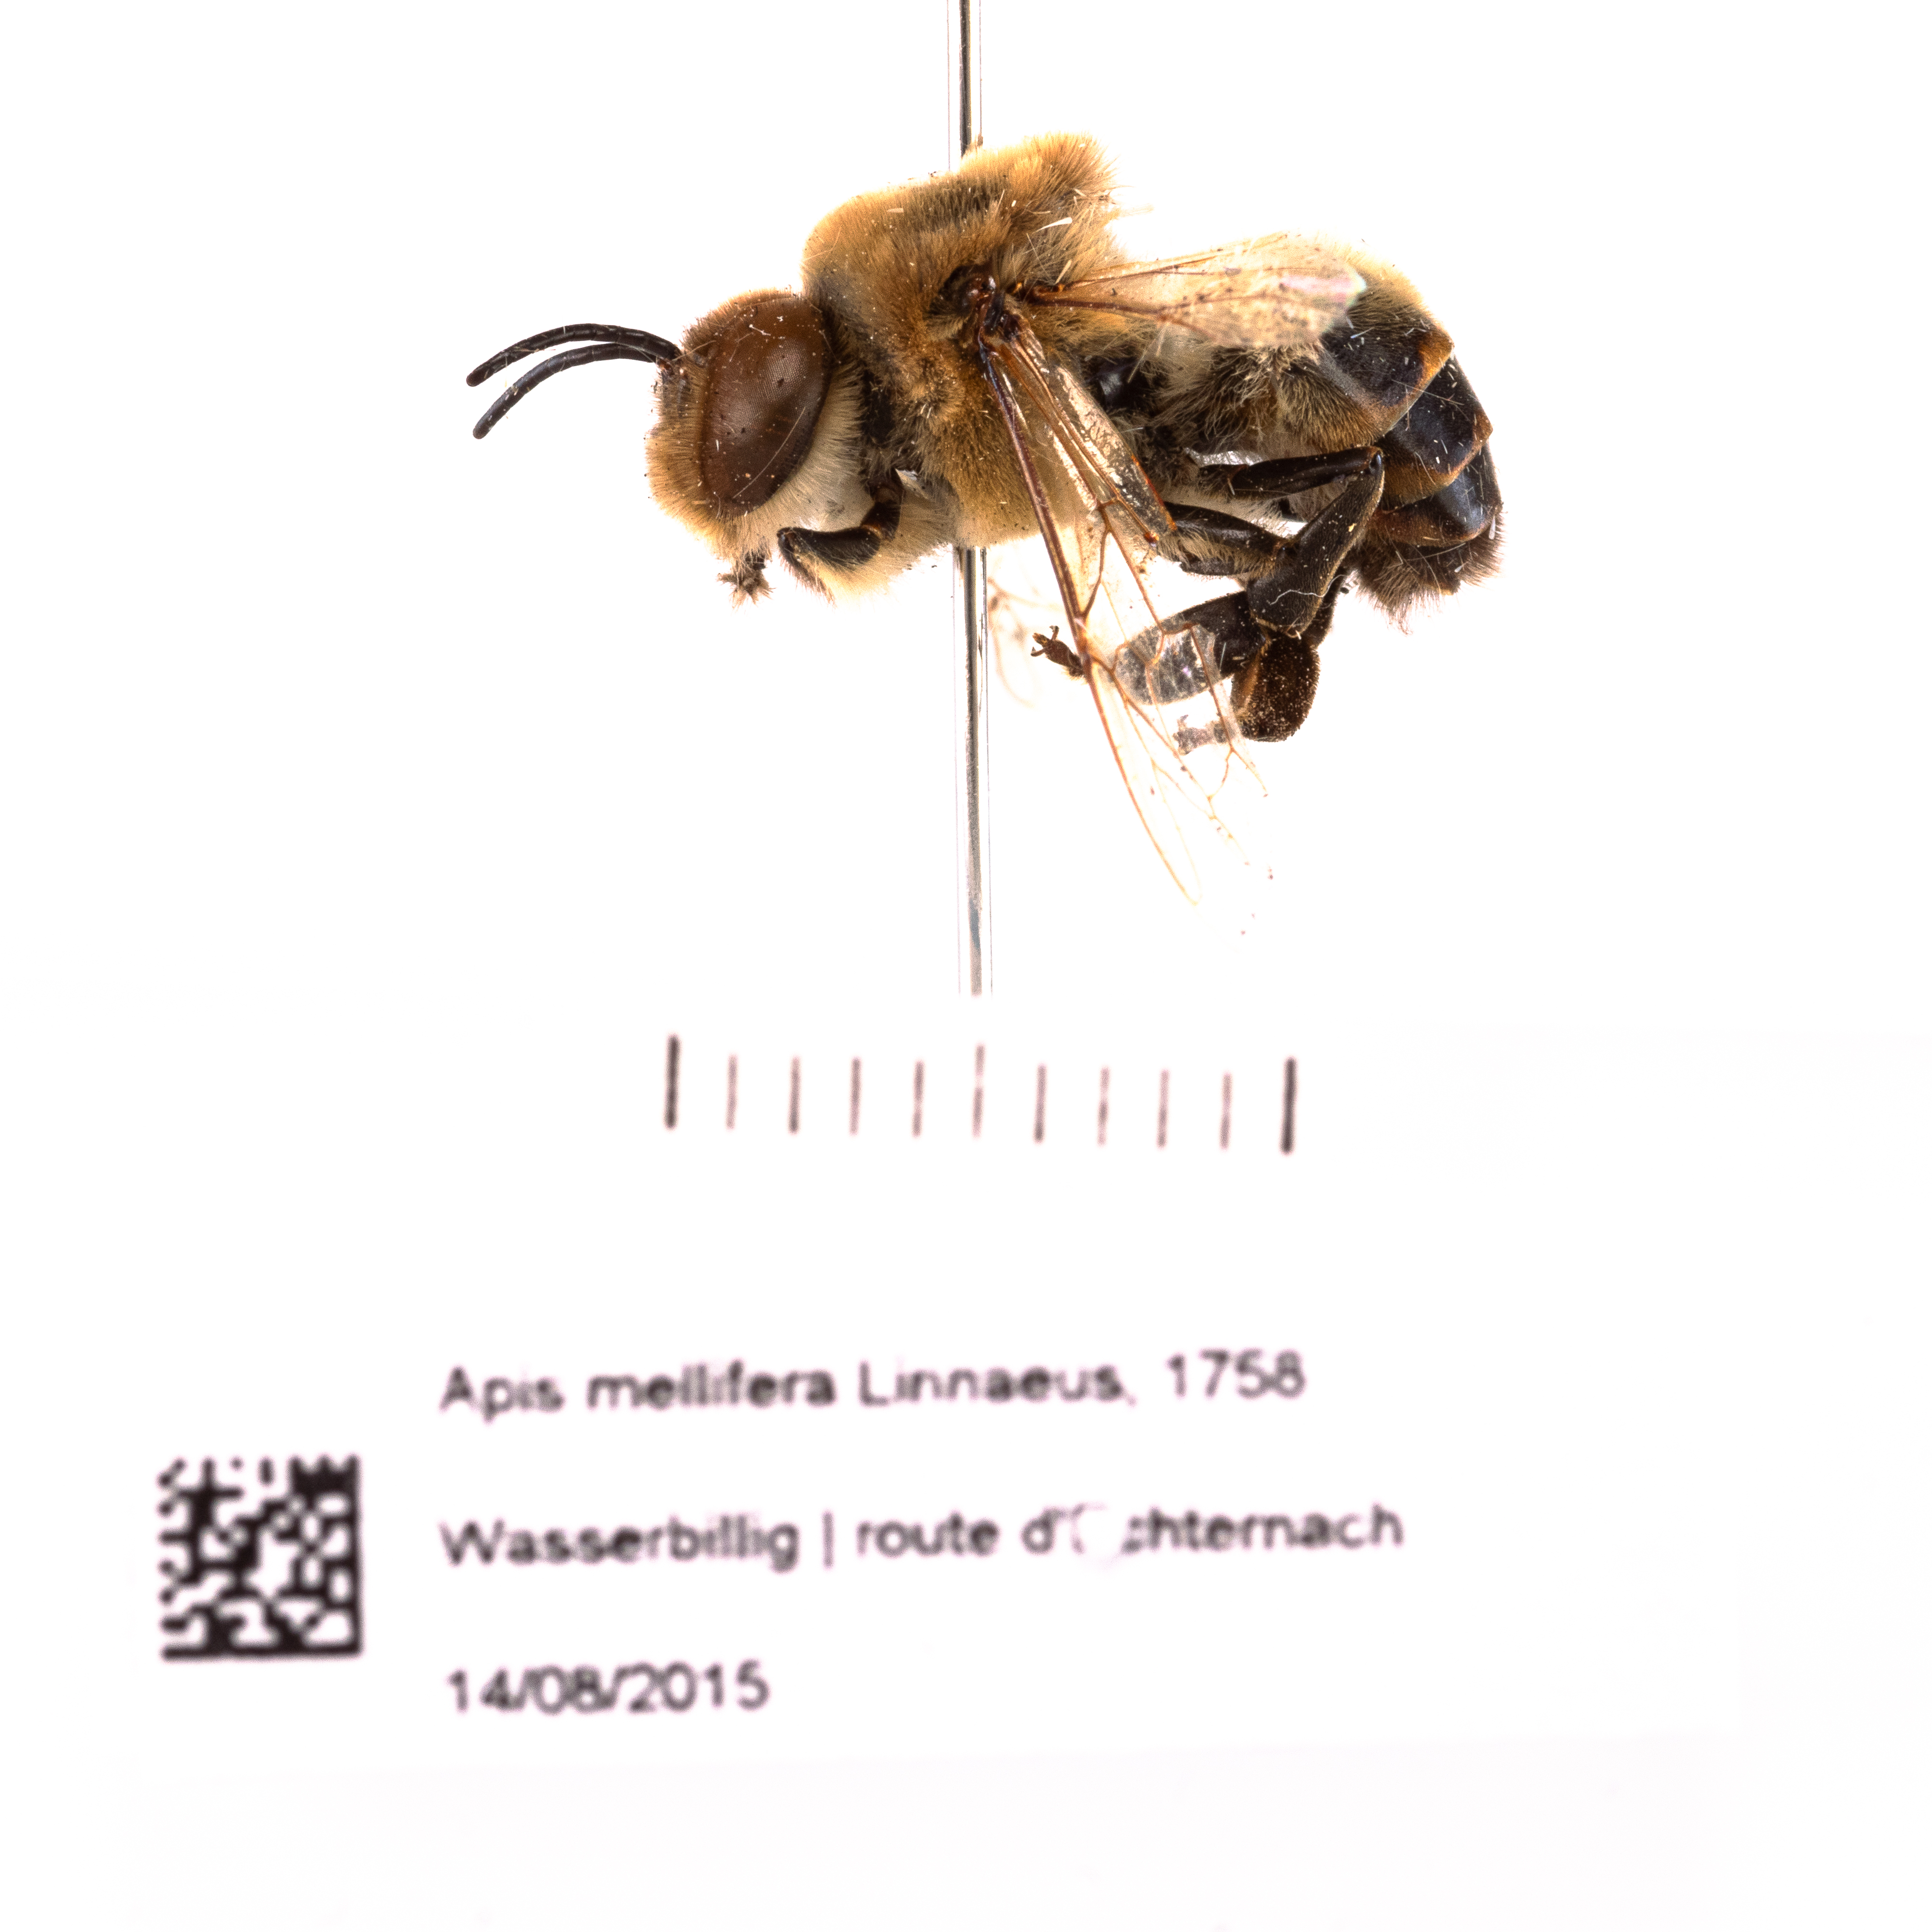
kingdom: Animalia
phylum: Arthropoda
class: Insecta
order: Hymenoptera
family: Apidae
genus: Apis
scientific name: Apis mellifera
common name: Honey bee
